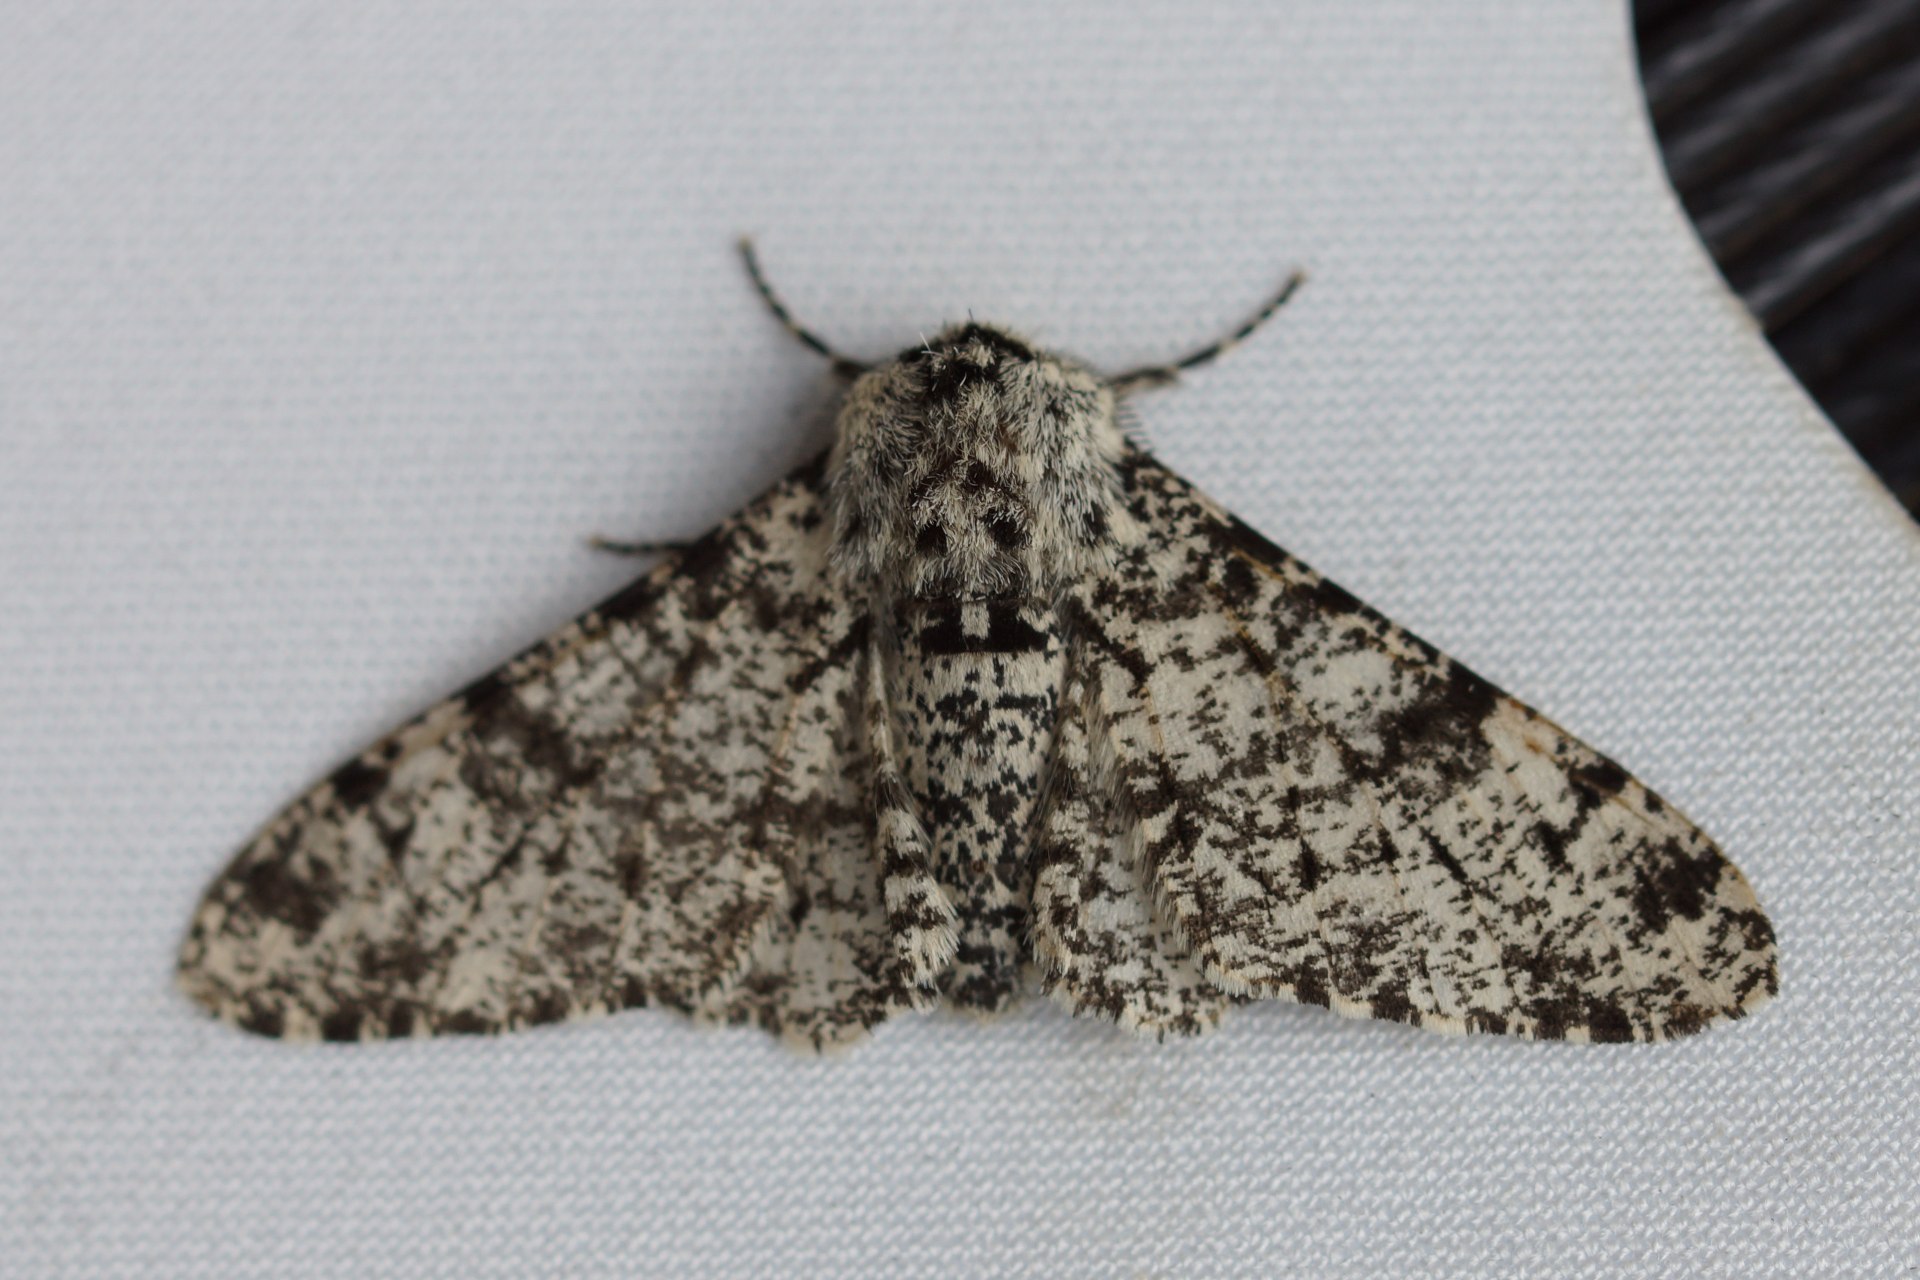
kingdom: Animalia
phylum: Arthropoda
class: Insecta
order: Lepidoptera
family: Geometridae
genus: Biston
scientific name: Biston betularia
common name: Birkemåler
